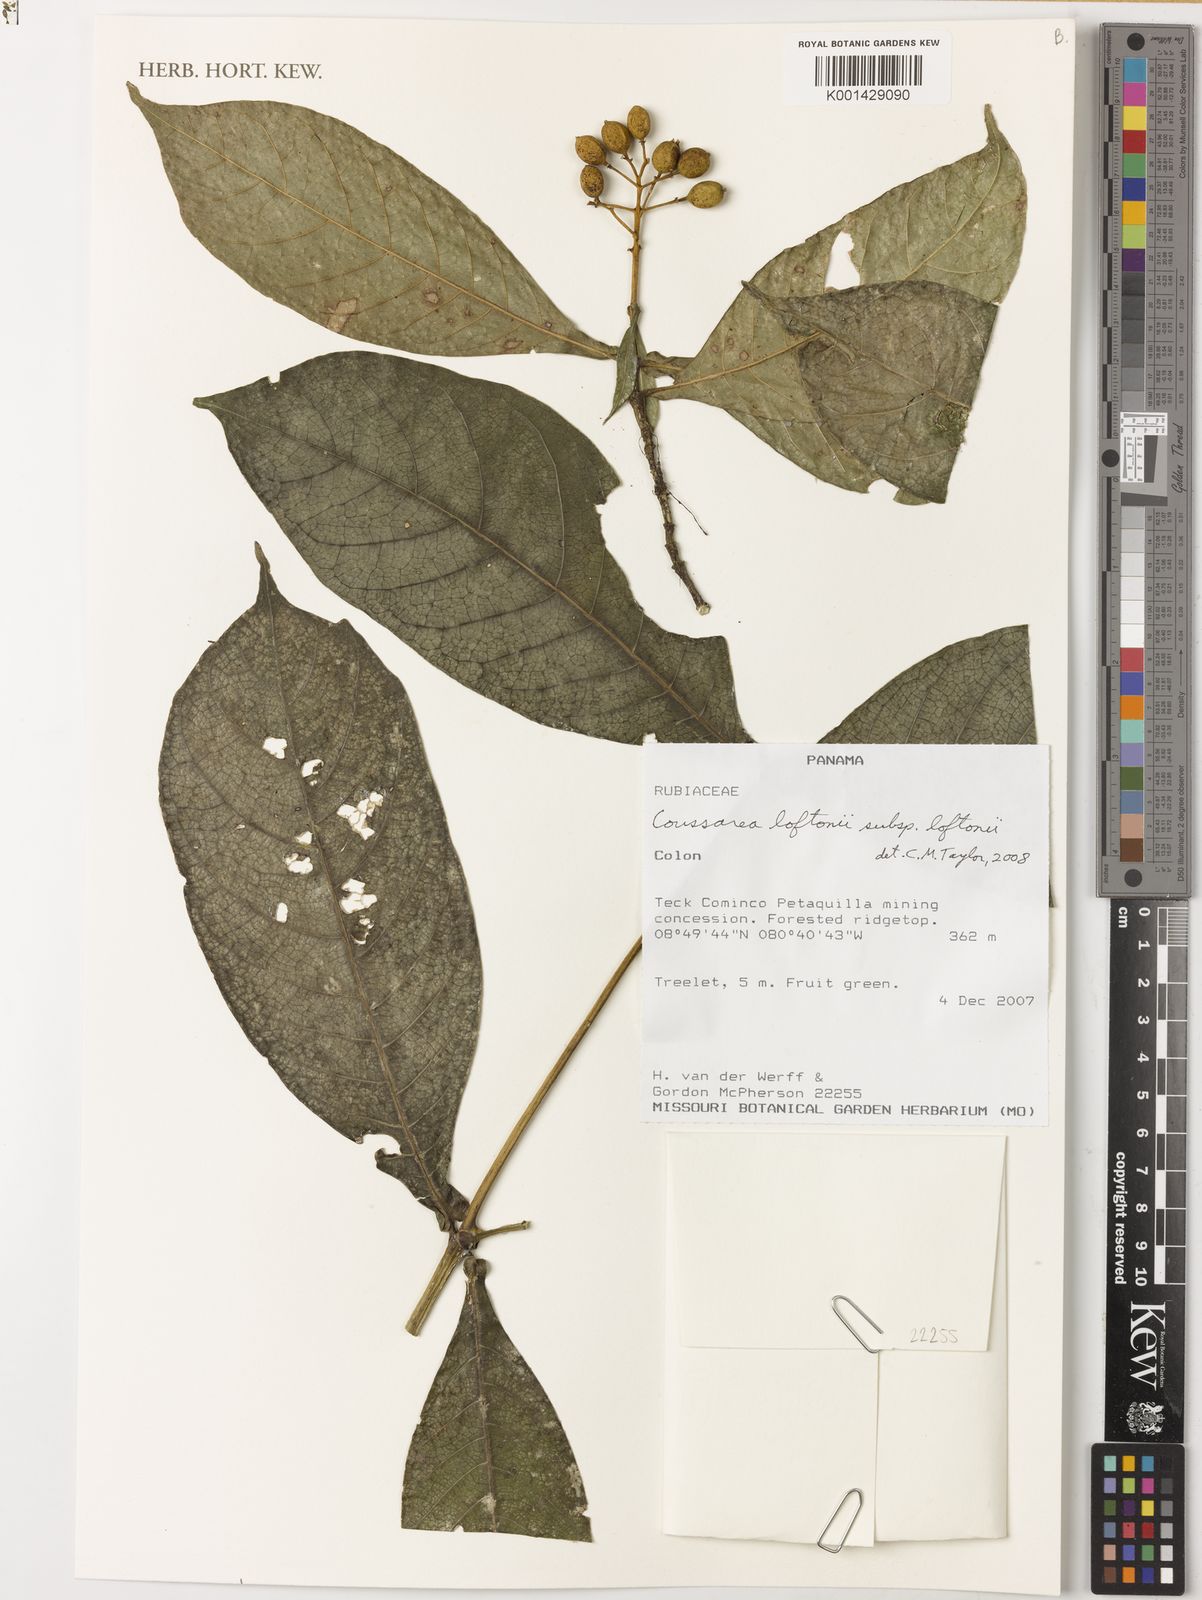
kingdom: Plantae
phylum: Tracheophyta
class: Magnoliopsida
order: Gentianales
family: Rubiaceae
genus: Coussarea
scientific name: Coussarea loftonii
